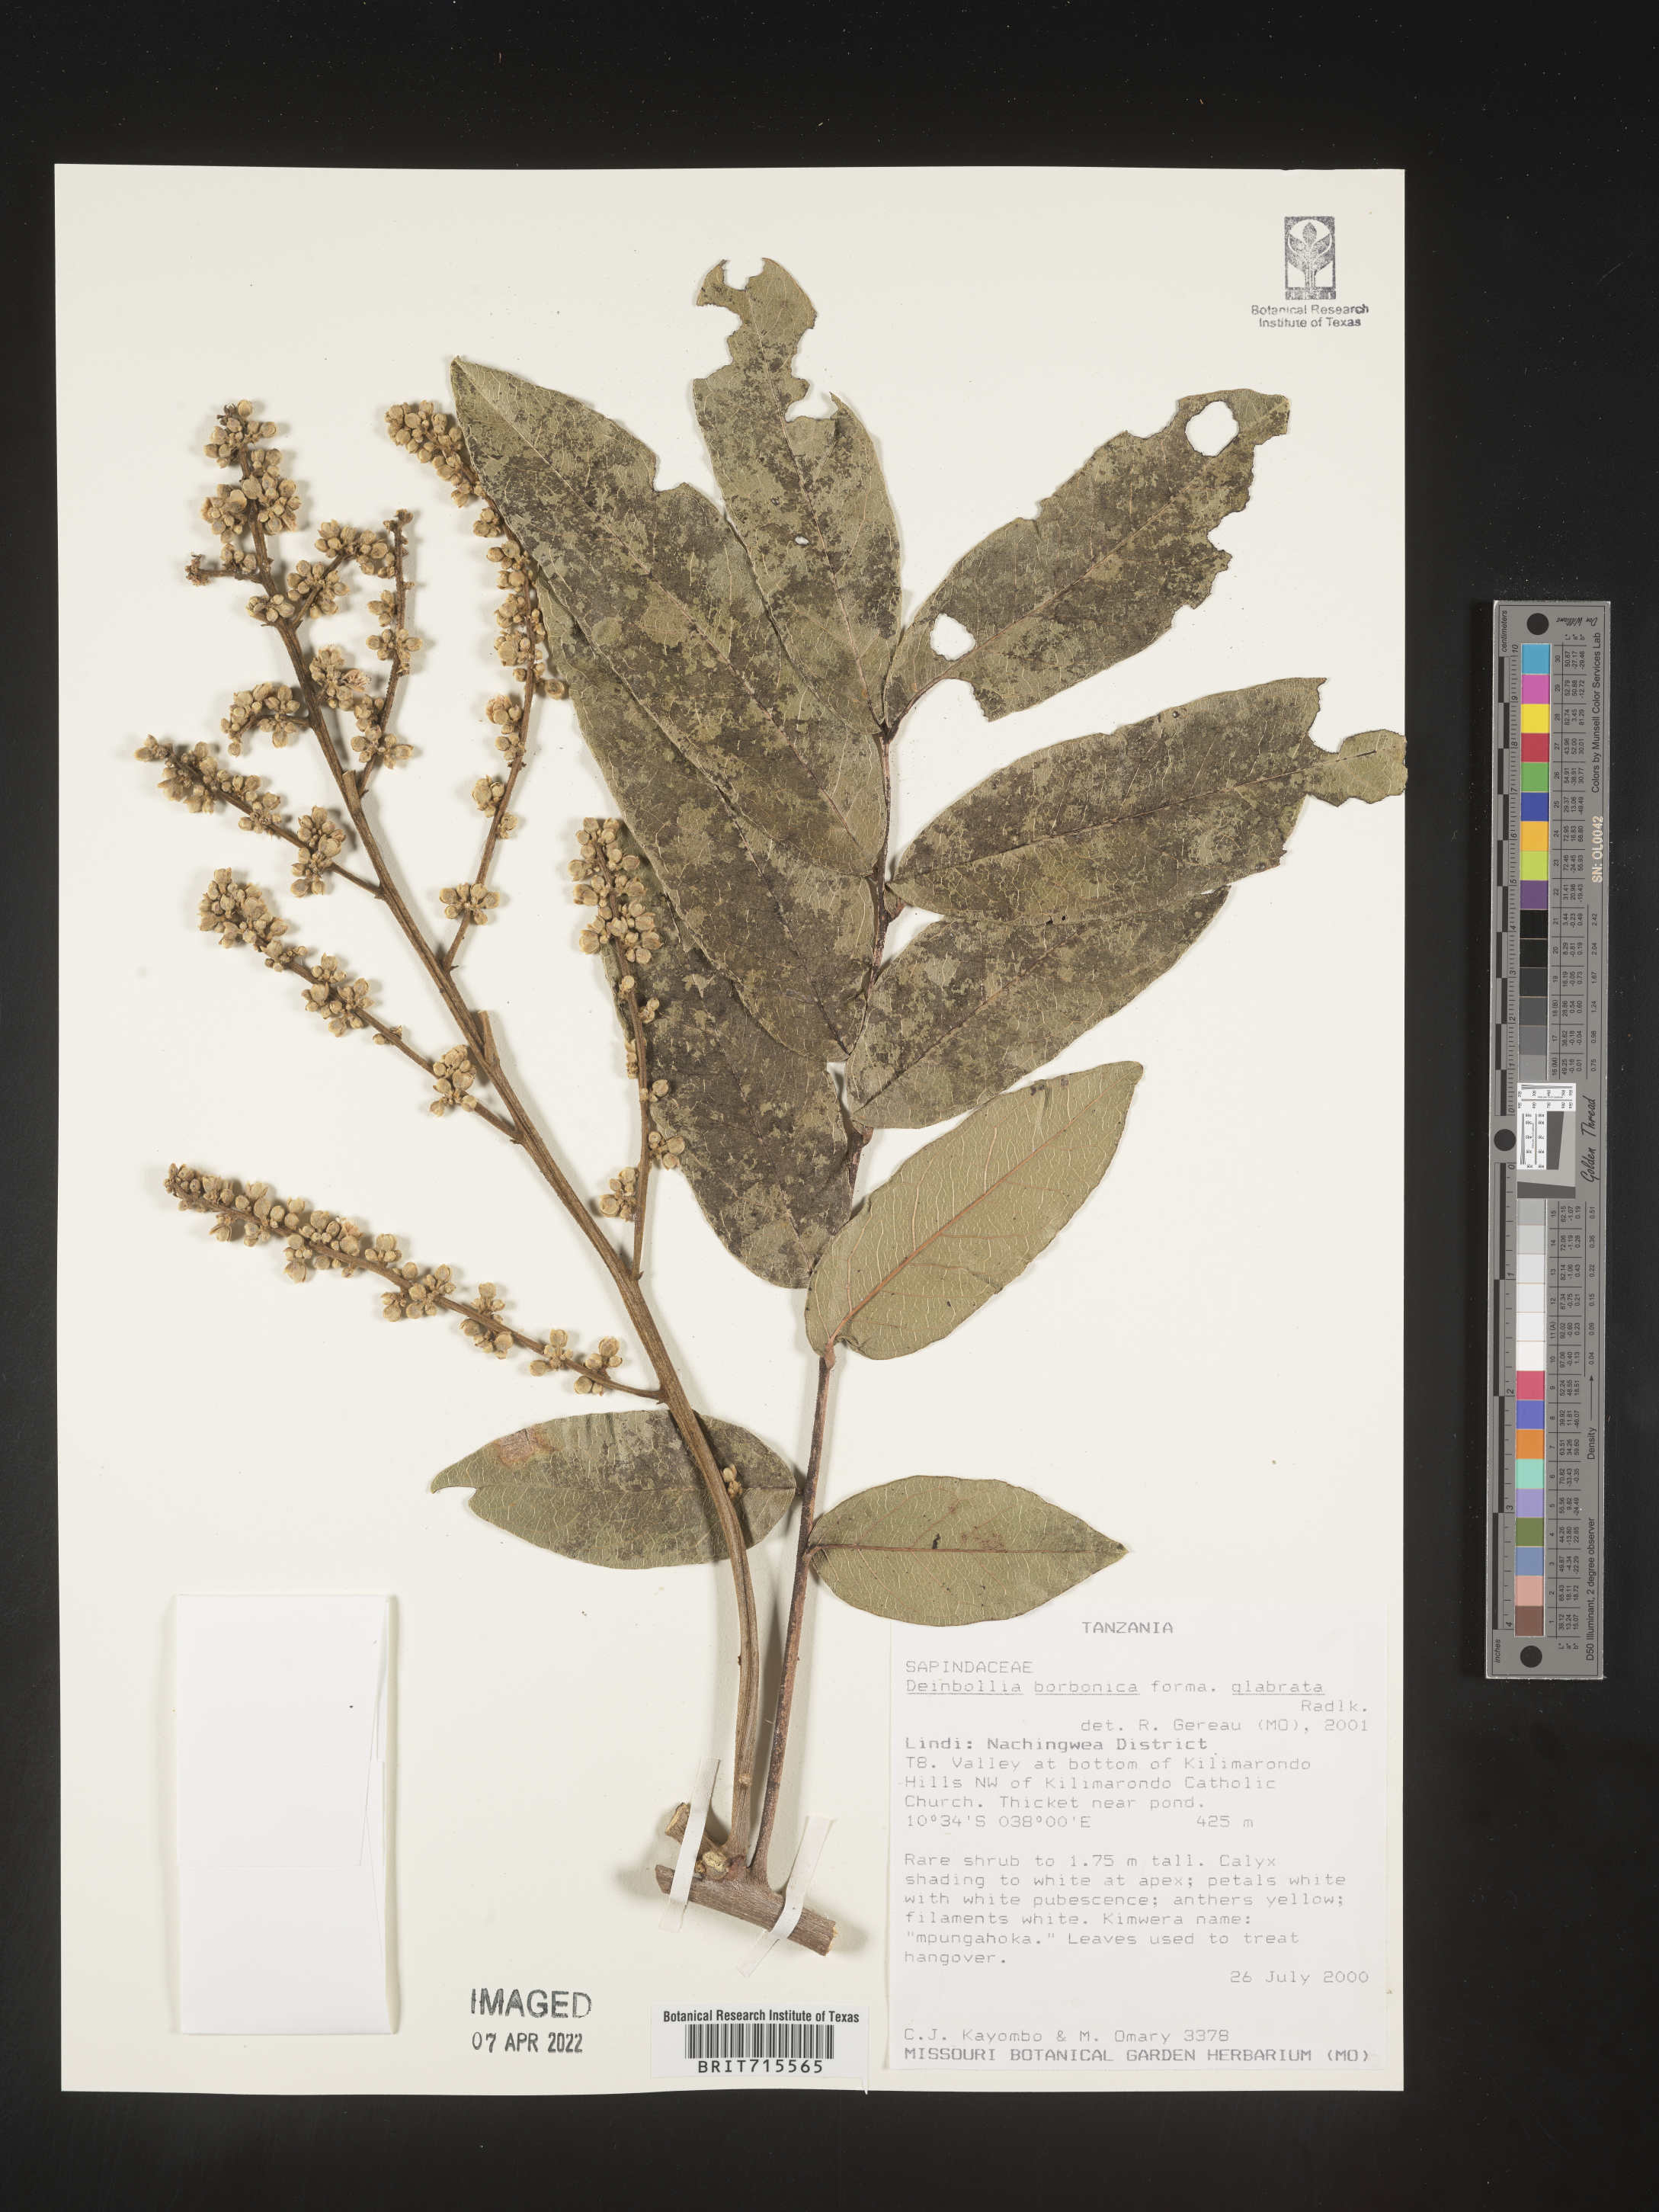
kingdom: Plantae
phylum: Tracheophyta
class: Magnoliopsida
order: Sapindales
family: Sapindaceae
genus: Deinbollia
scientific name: Deinbollia
